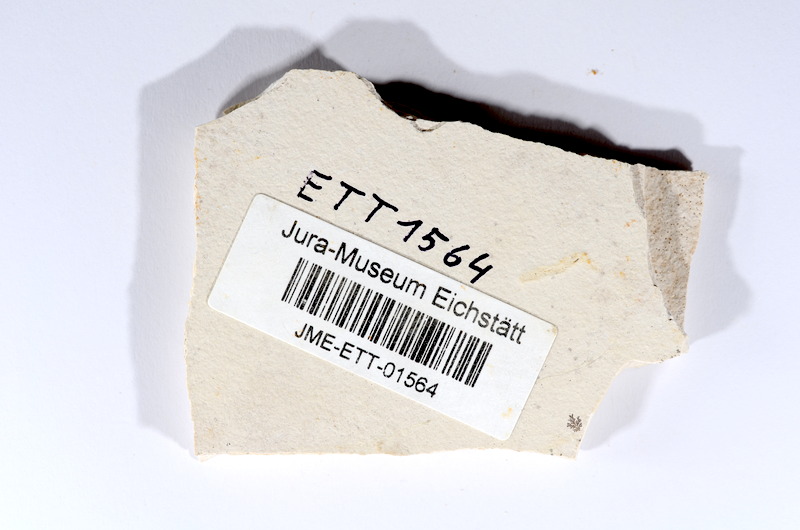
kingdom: Animalia
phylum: Chordata
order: Salmoniformes
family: Orthogonikleithridae
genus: Orthogonikleithrus
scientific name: Orthogonikleithrus hoelli
